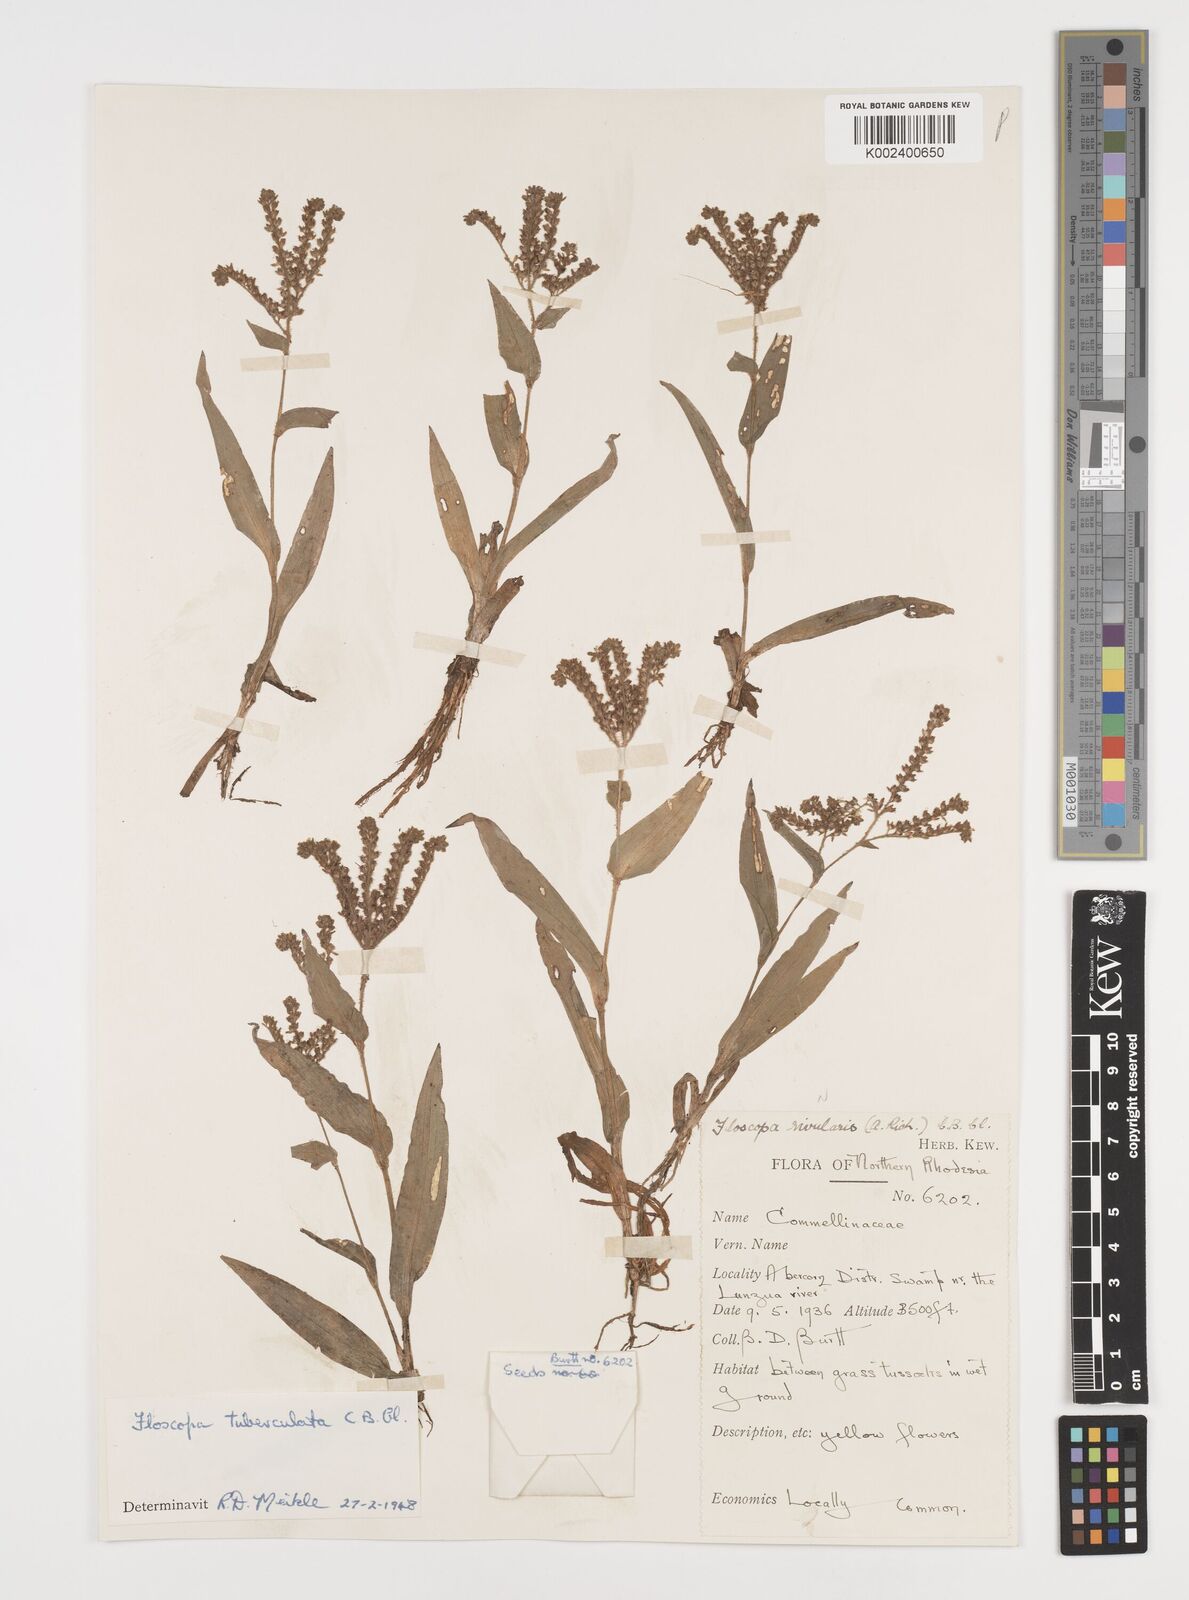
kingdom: Plantae
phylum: Tracheophyta
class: Liliopsida
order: Commelinales
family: Commelinaceae
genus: Floscopa
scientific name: Floscopa tuberculata
